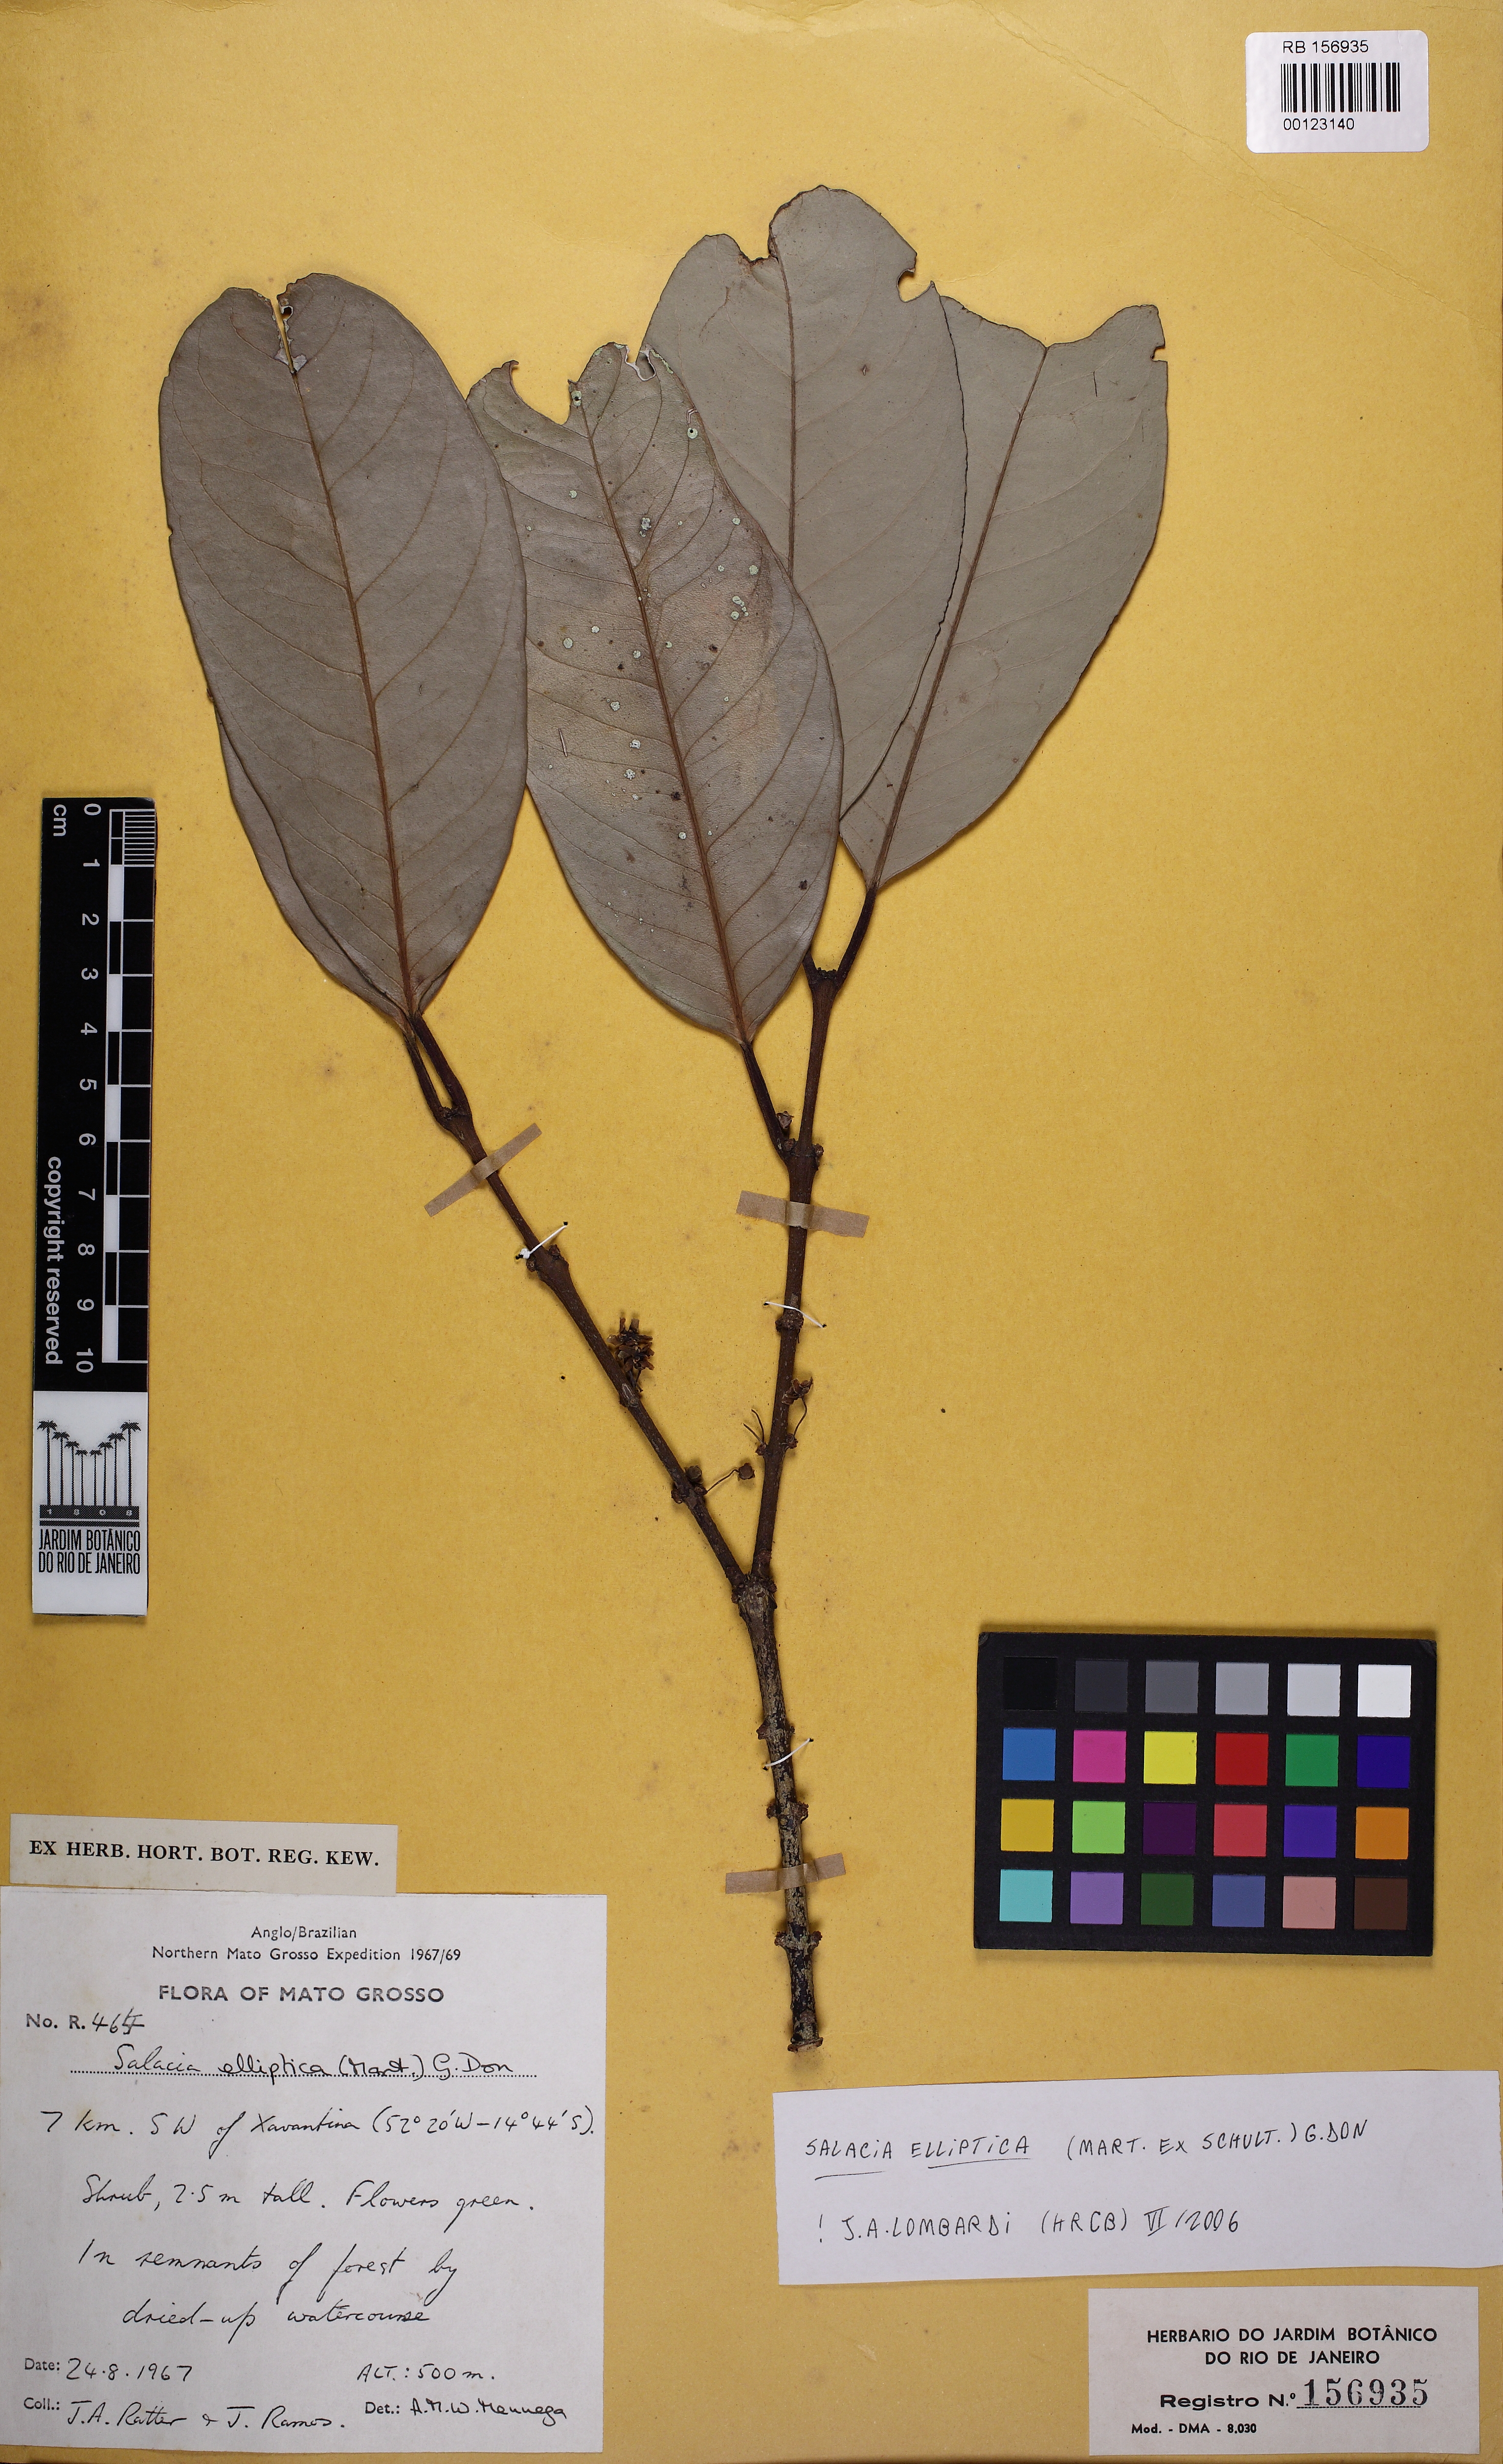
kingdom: Plantae
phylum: Tracheophyta
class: Magnoliopsida
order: Celastrales
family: Celastraceae
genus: Salacia
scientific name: Salacia elliptica
